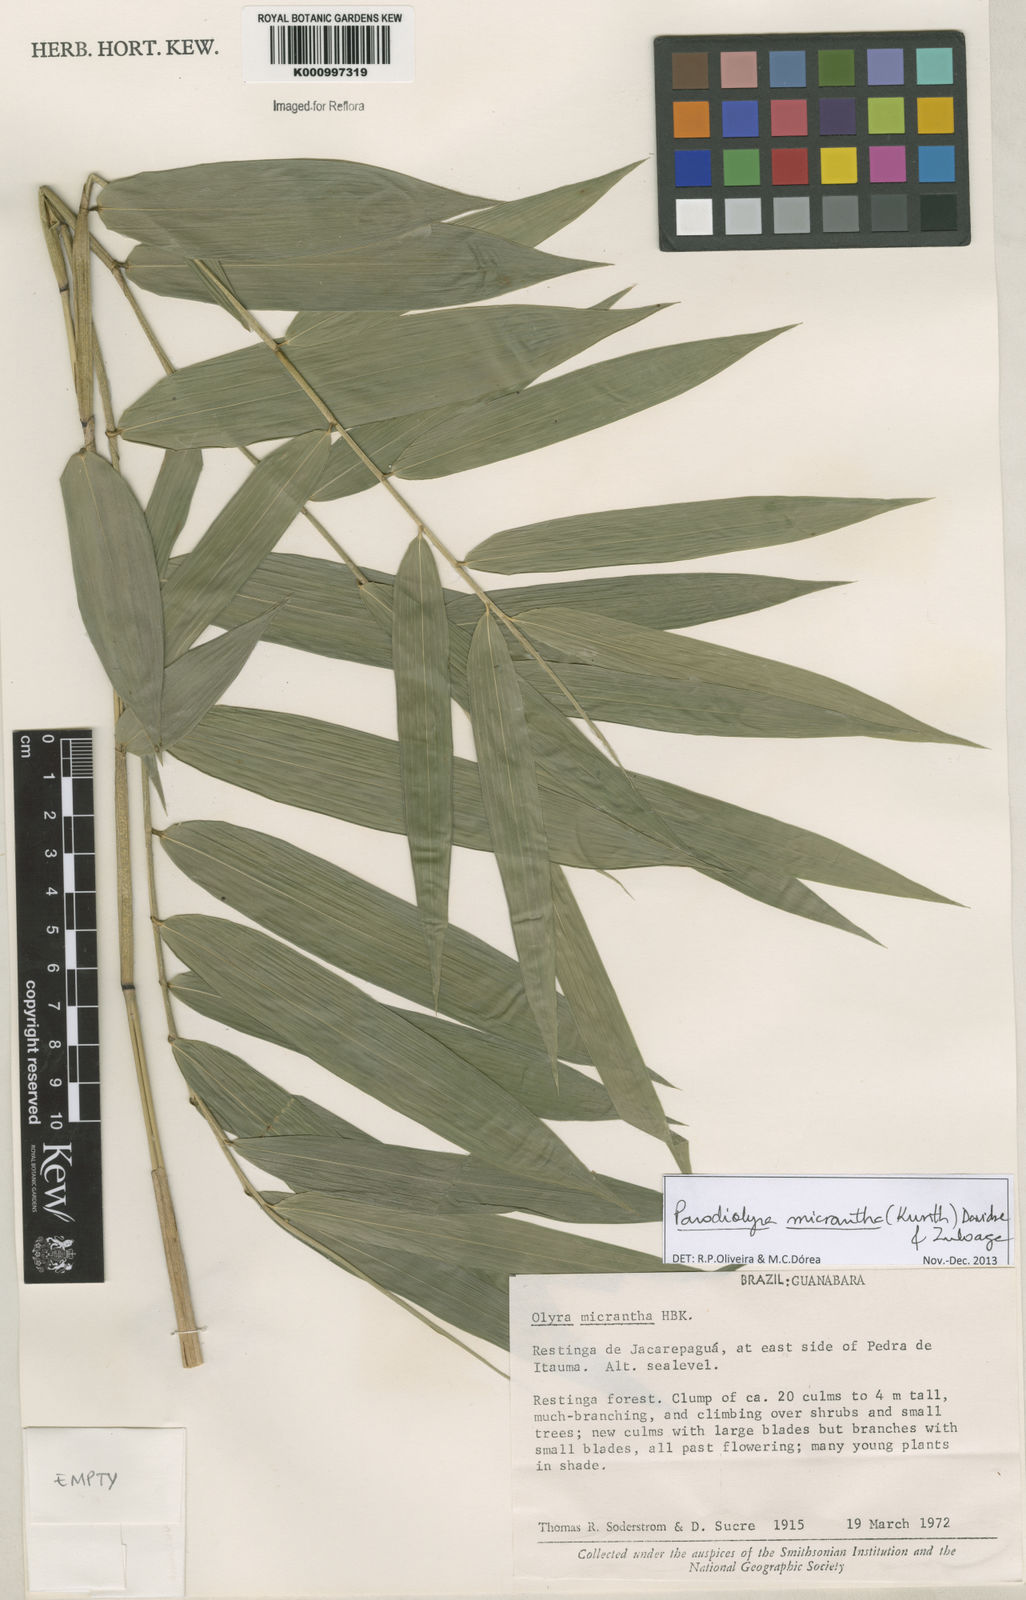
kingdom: Plantae
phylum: Tracheophyta
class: Liliopsida
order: Poales
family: Poaceae
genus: Taquara
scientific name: Taquara micrantha
